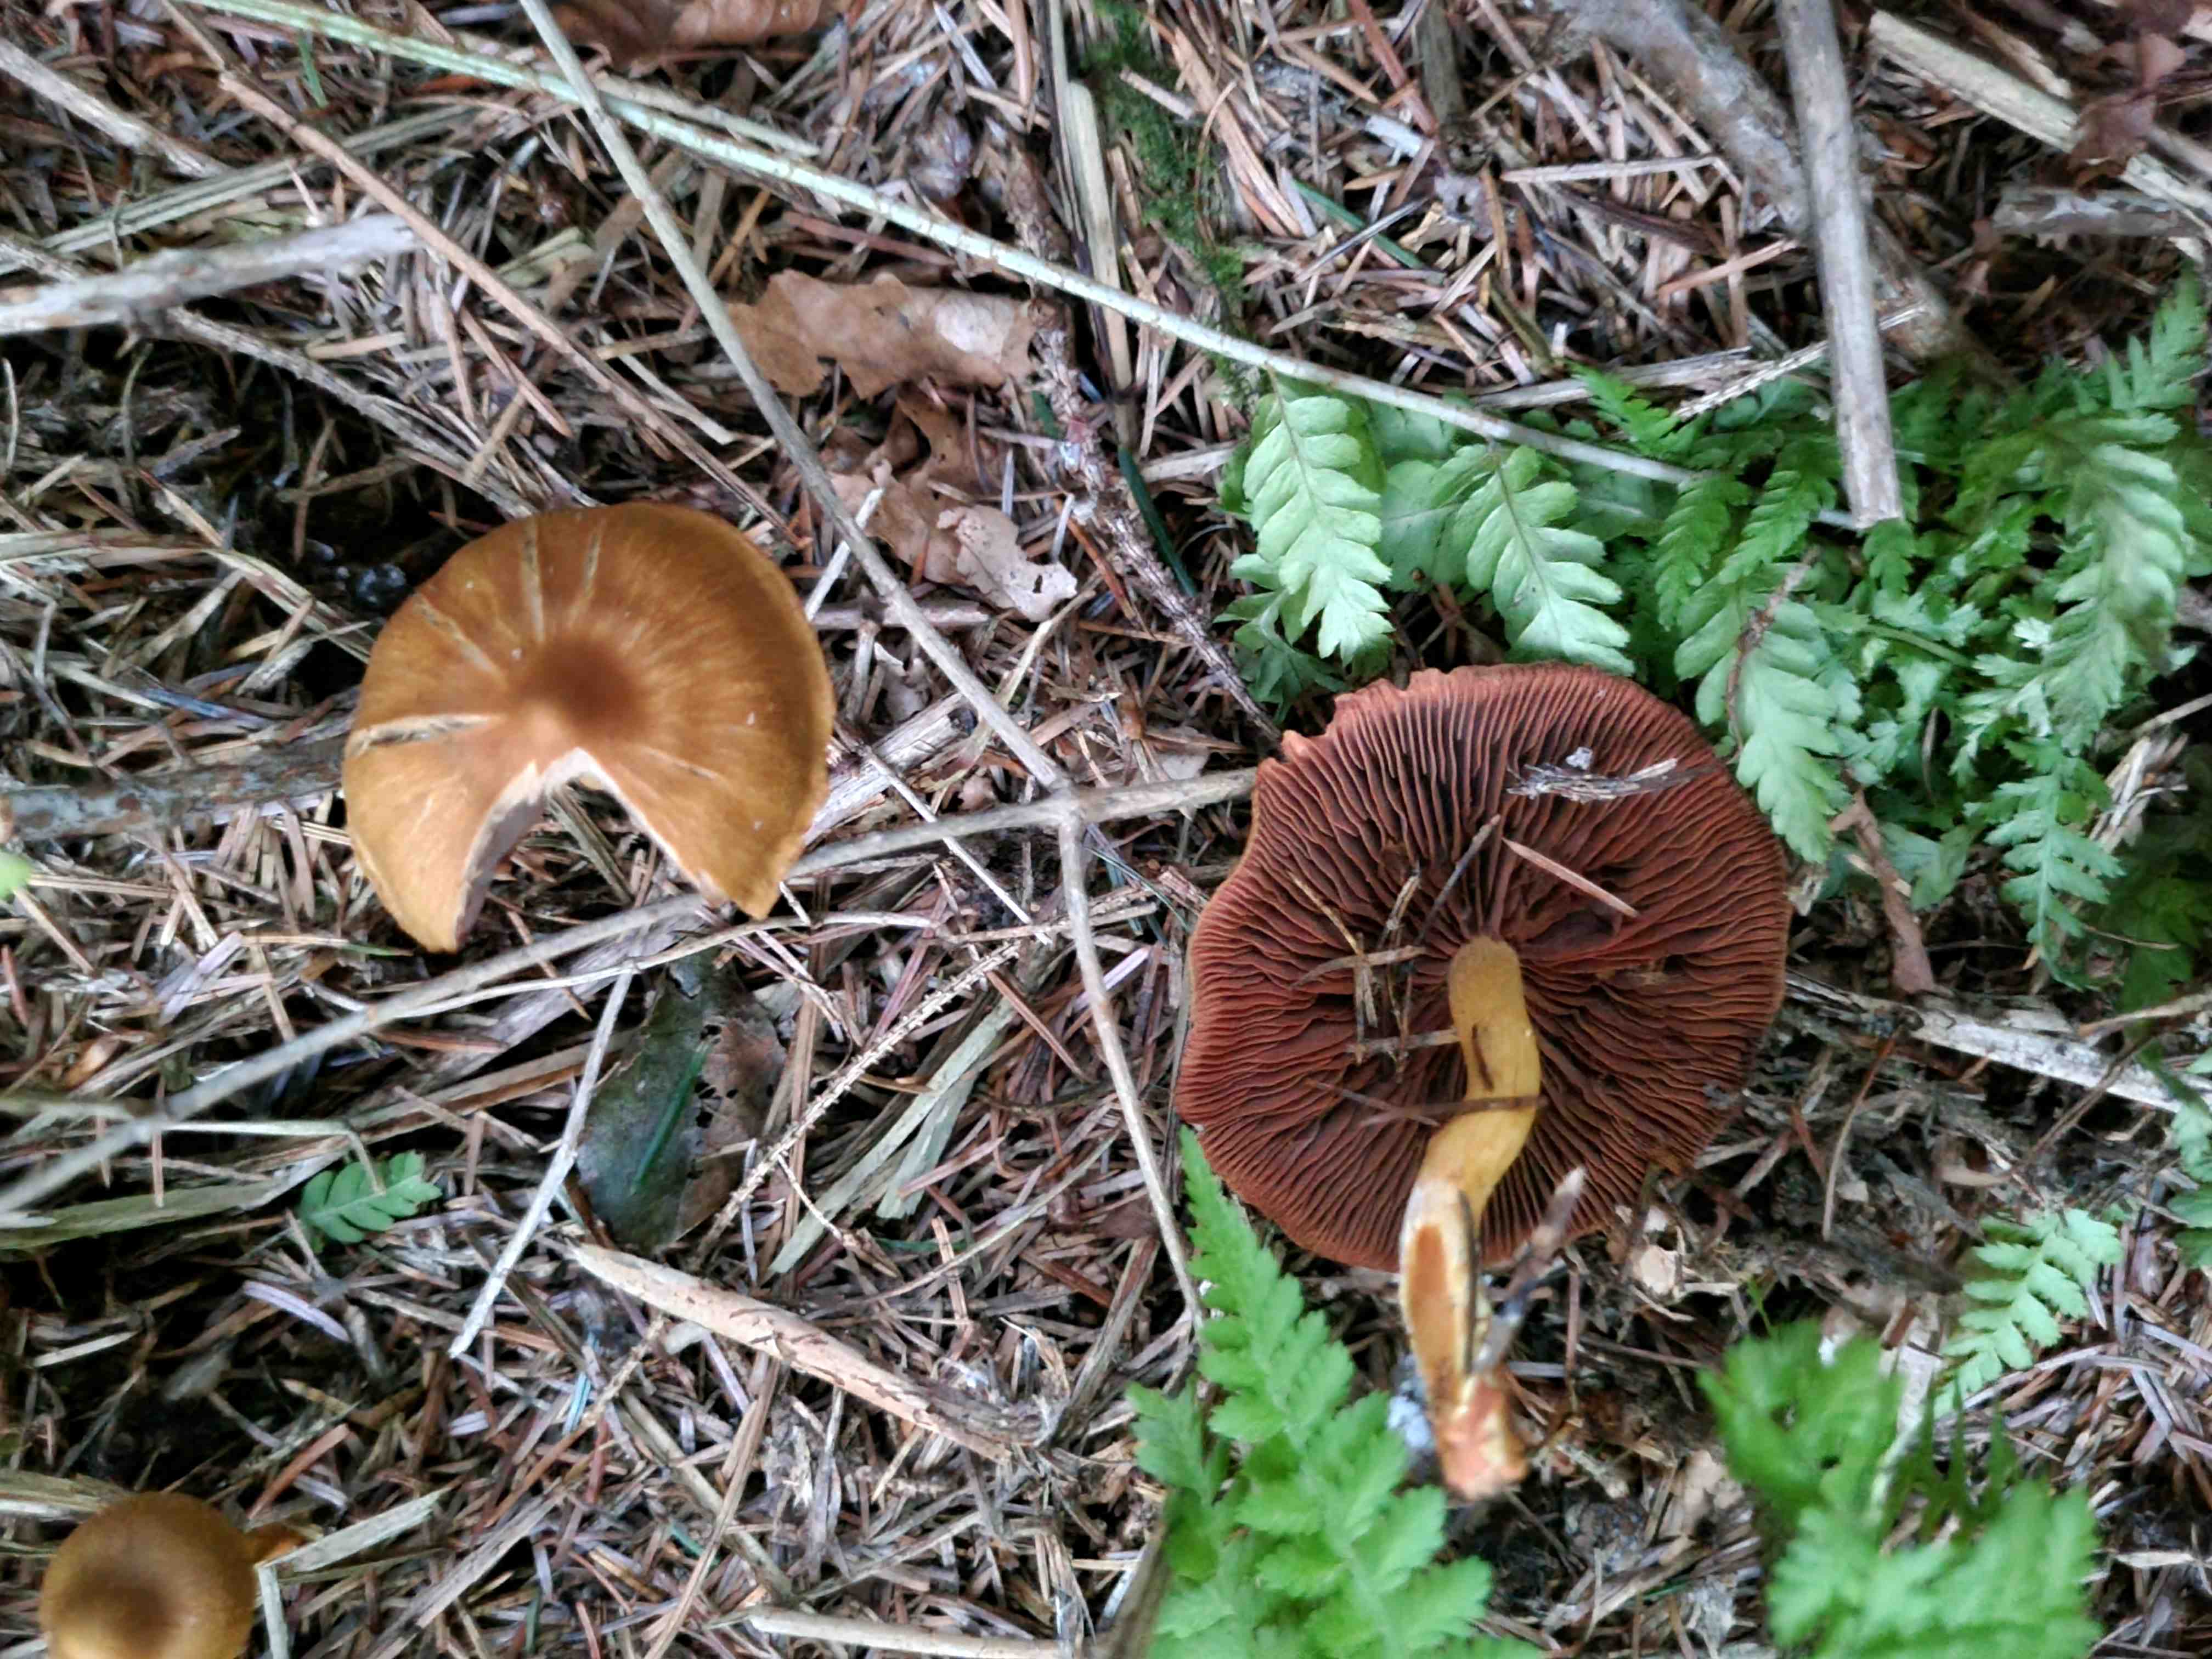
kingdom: Fungi
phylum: Basidiomycota
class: Agaricomycetes
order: Agaricales
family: Cortinariaceae
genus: Cortinarius
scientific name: Cortinarius
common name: cinnoberbladet slørhat
